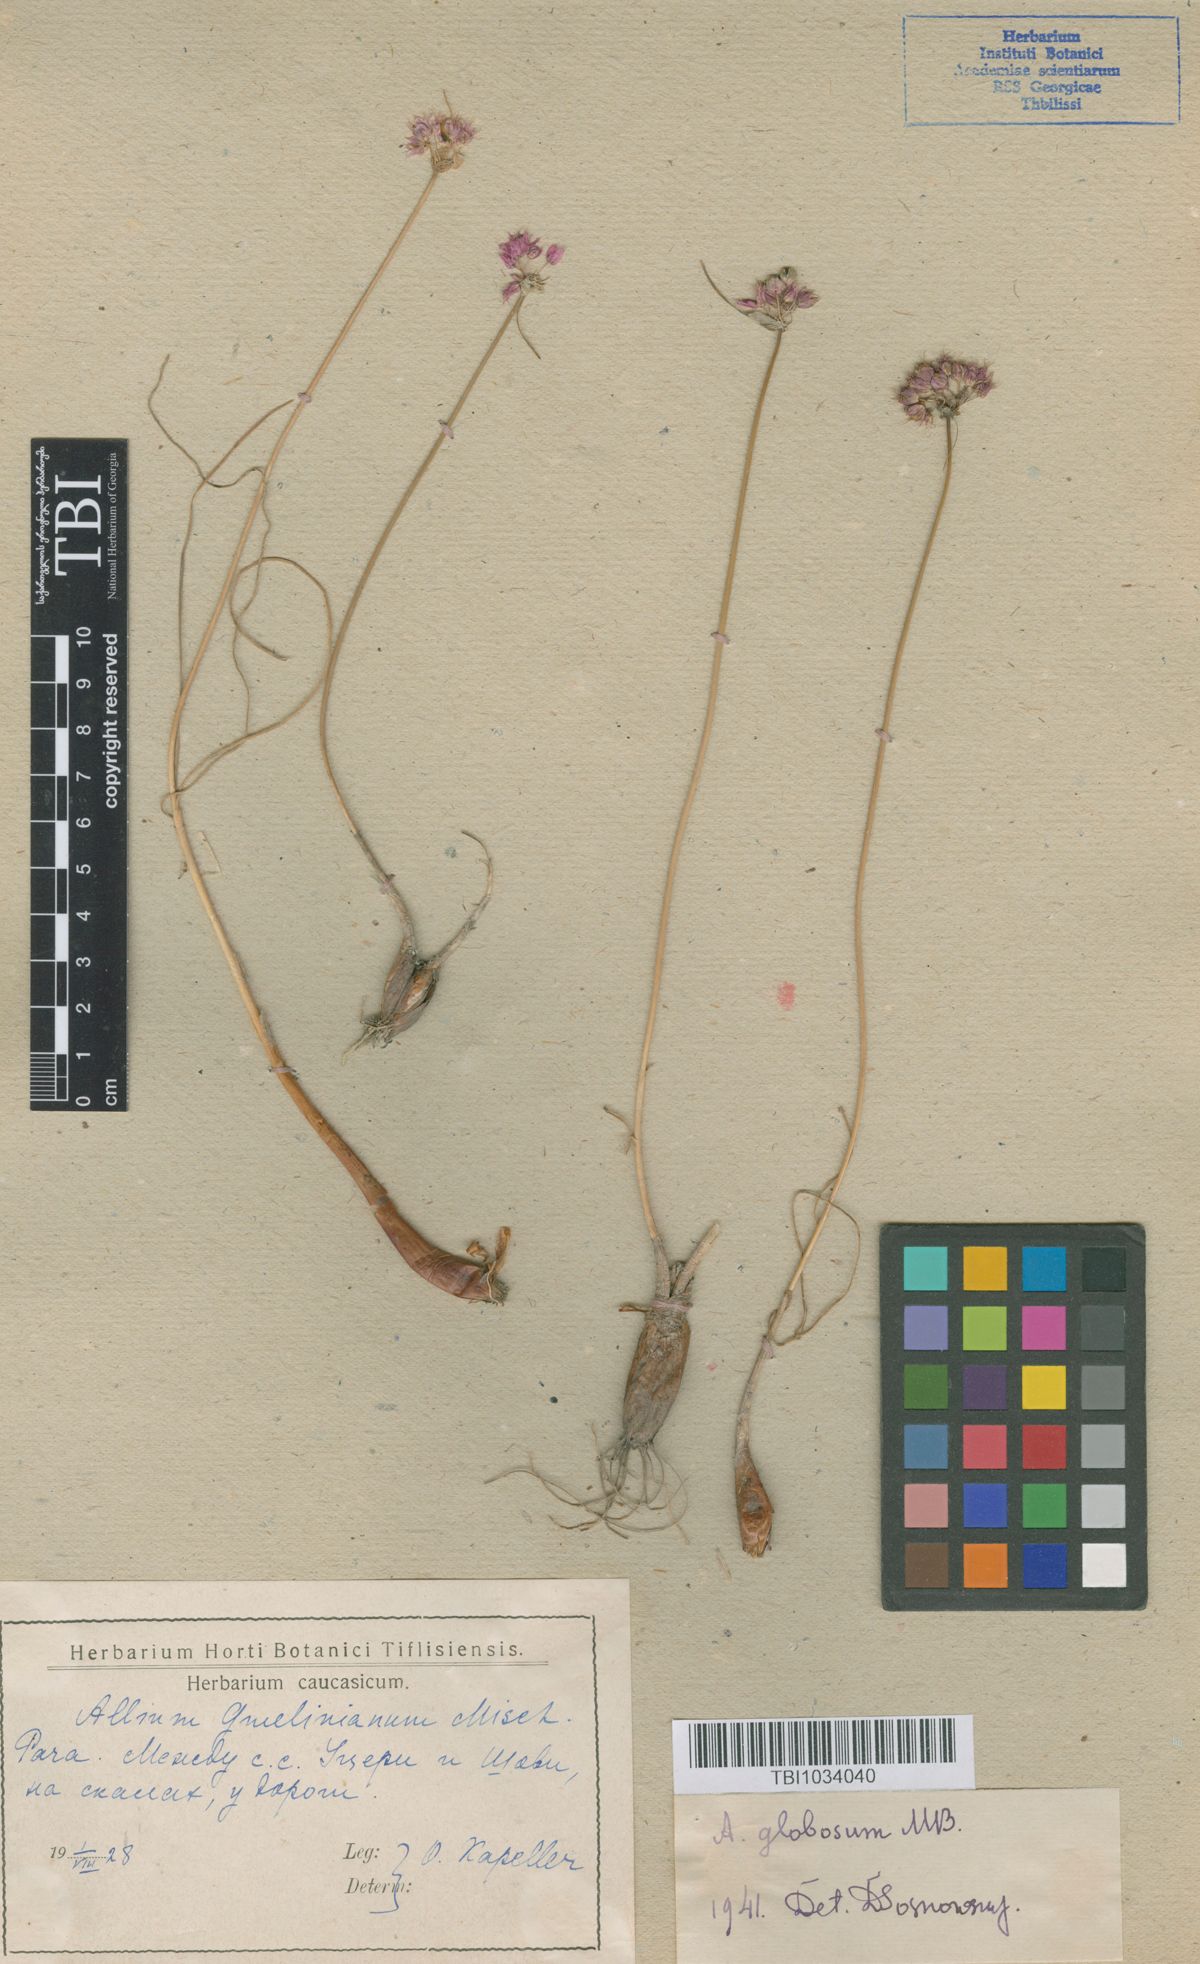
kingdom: Plantae
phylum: Tracheophyta
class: Liliopsida
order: Asparagales
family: Amaryllidaceae
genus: Allium
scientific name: Allium saxatile
